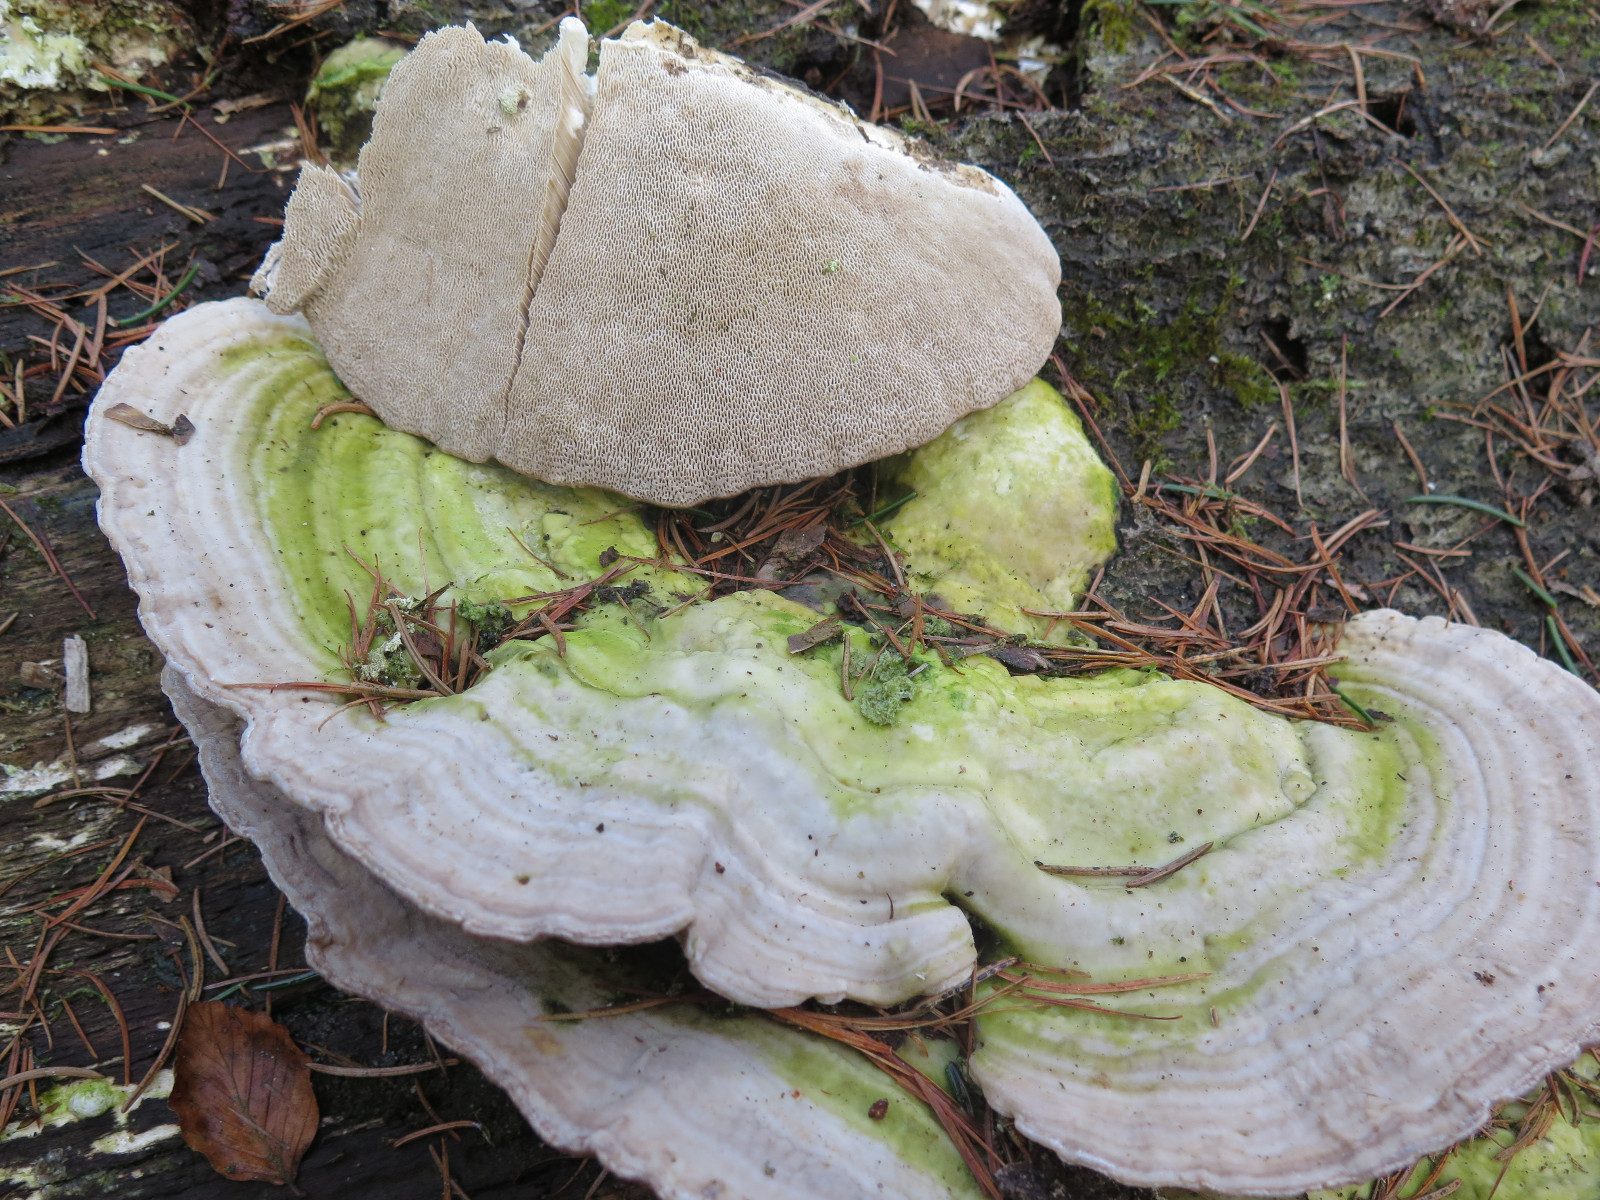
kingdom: Fungi
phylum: Basidiomycota
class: Agaricomycetes
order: Polyporales
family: Polyporaceae
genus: Trametes
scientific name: Trametes gibbosa
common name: puklet læderporesvamp
